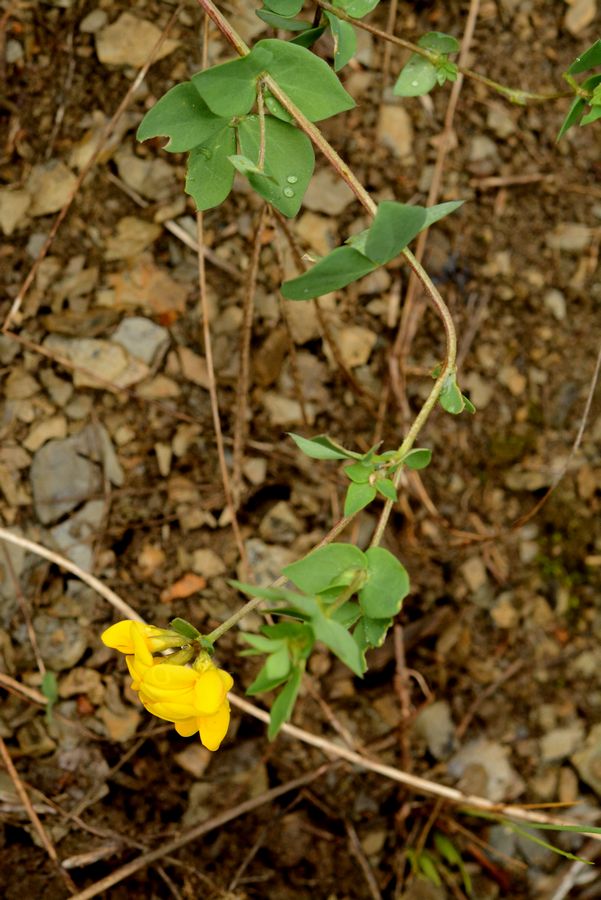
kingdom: Plantae
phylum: Tracheophyta
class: Magnoliopsida
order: Fabales
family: Fabaceae
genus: Lotus
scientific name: Lotus corniculatus
